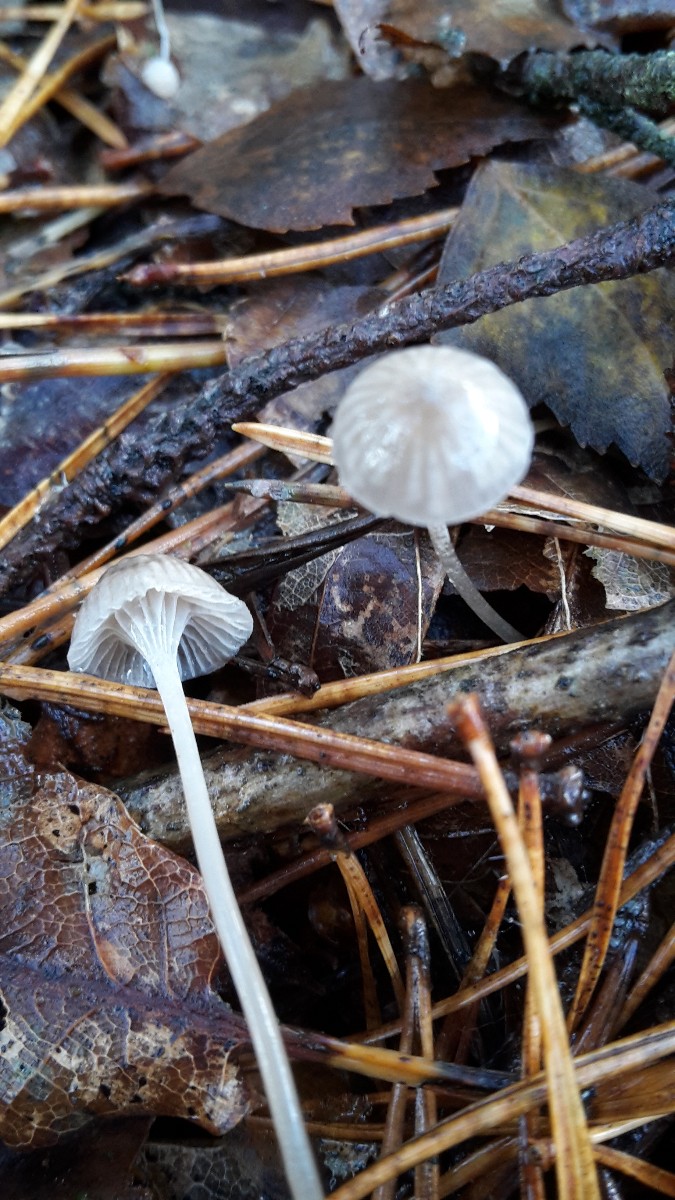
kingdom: Fungi
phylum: Basidiomycota
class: Agaricomycetes
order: Agaricales
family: Mycenaceae
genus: Mycena
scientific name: Mycena cinerella
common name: mel-huesvamp
